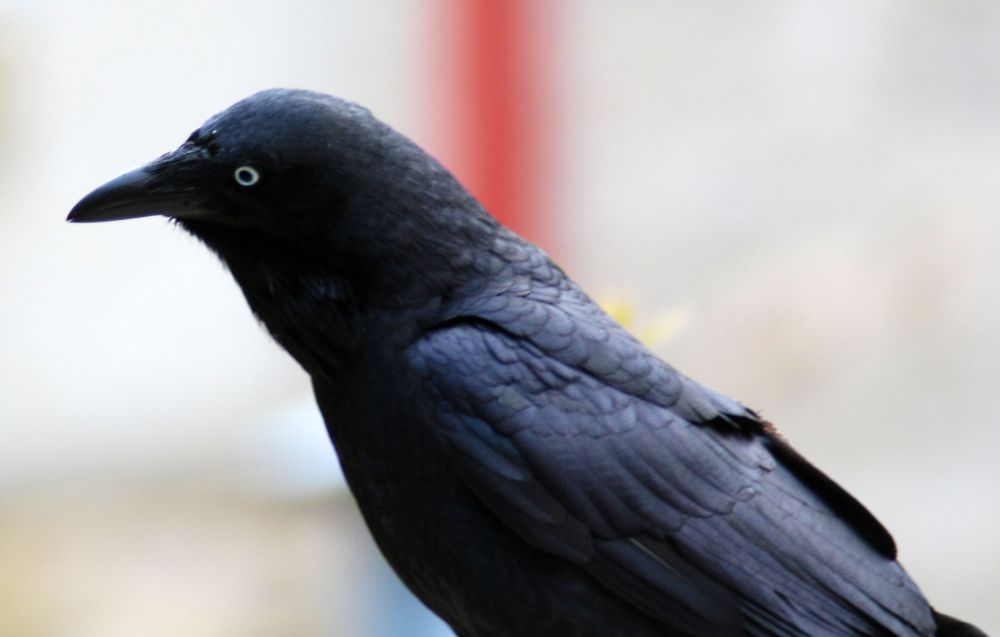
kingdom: Animalia
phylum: Chordata
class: Aves
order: Passeriformes
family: Corvidae
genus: Corvus
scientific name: Corvus coronoides
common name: Australian raven
